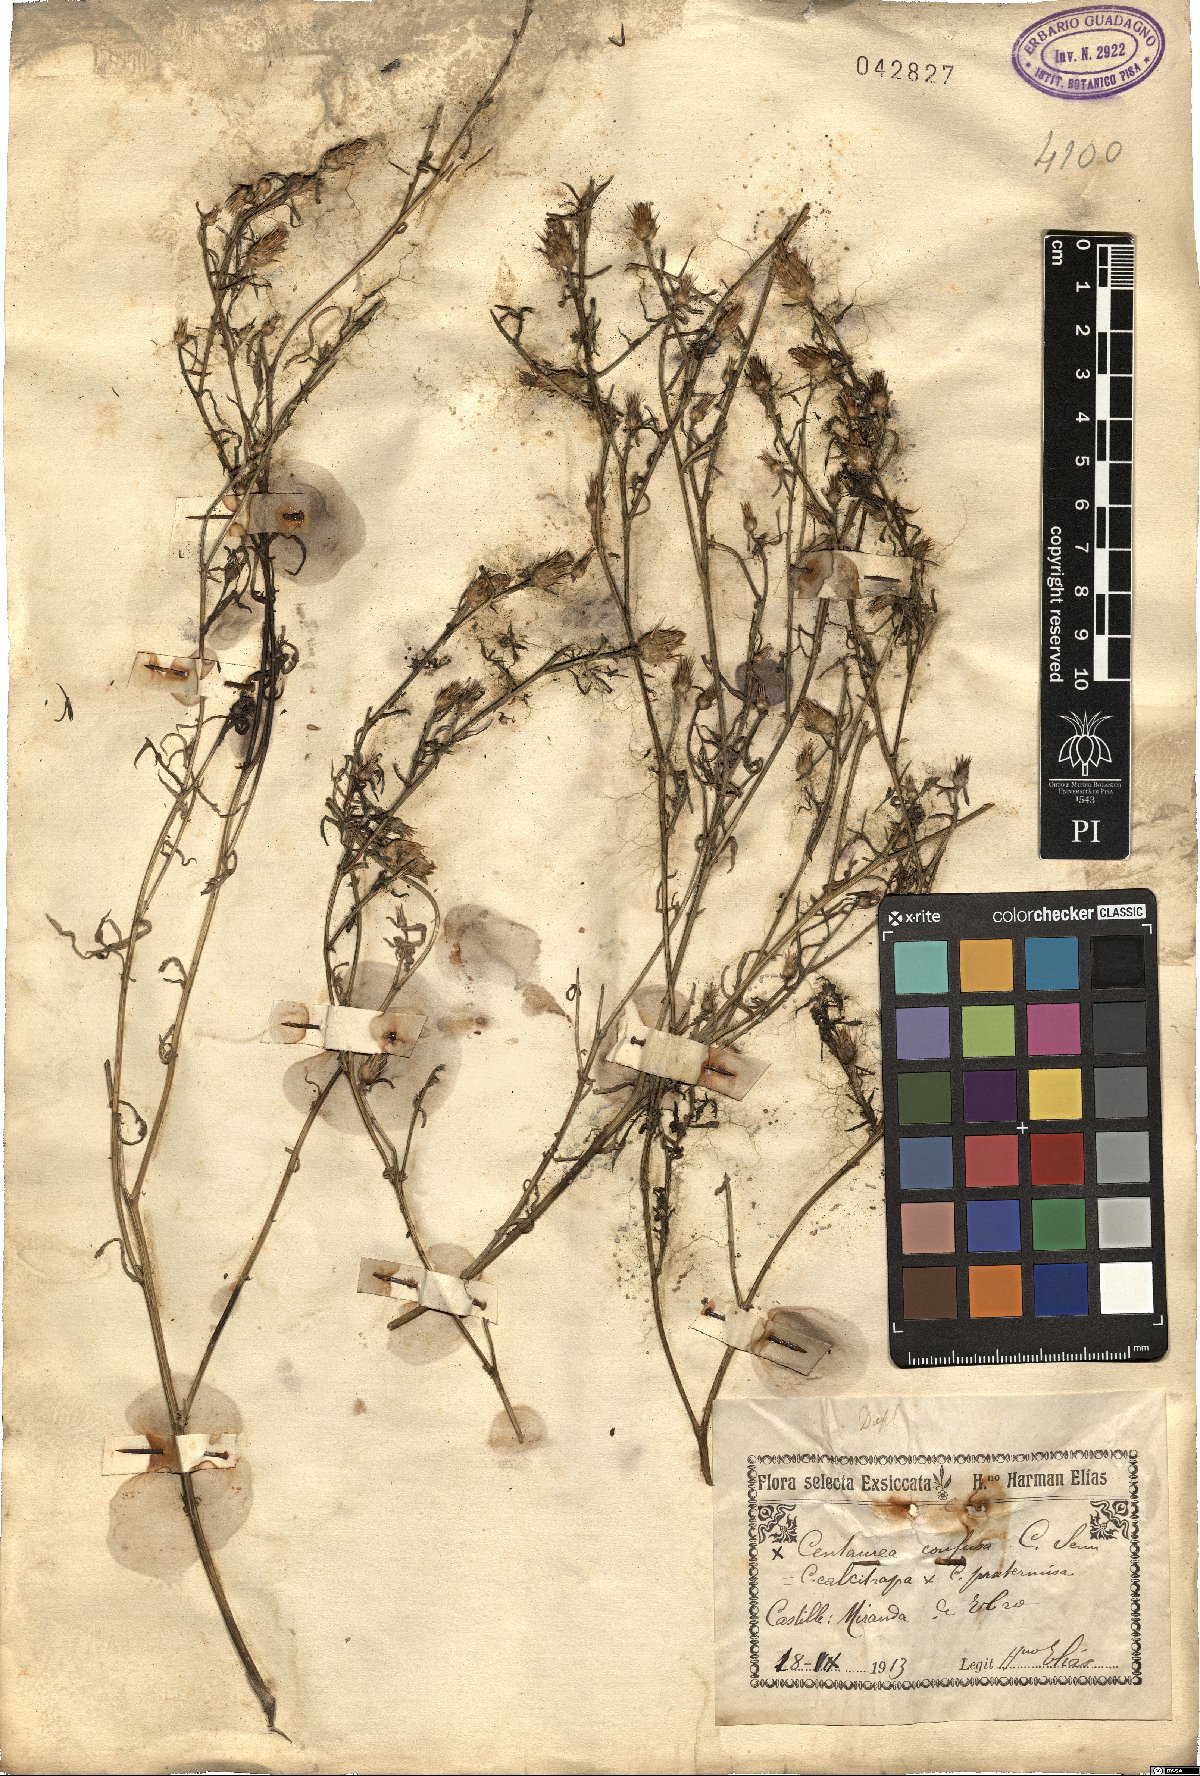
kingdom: Plantae
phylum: Tracheophyta
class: Magnoliopsida
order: Asterales
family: Asteraceae
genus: Centaurea
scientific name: Centaurea grisebachii
